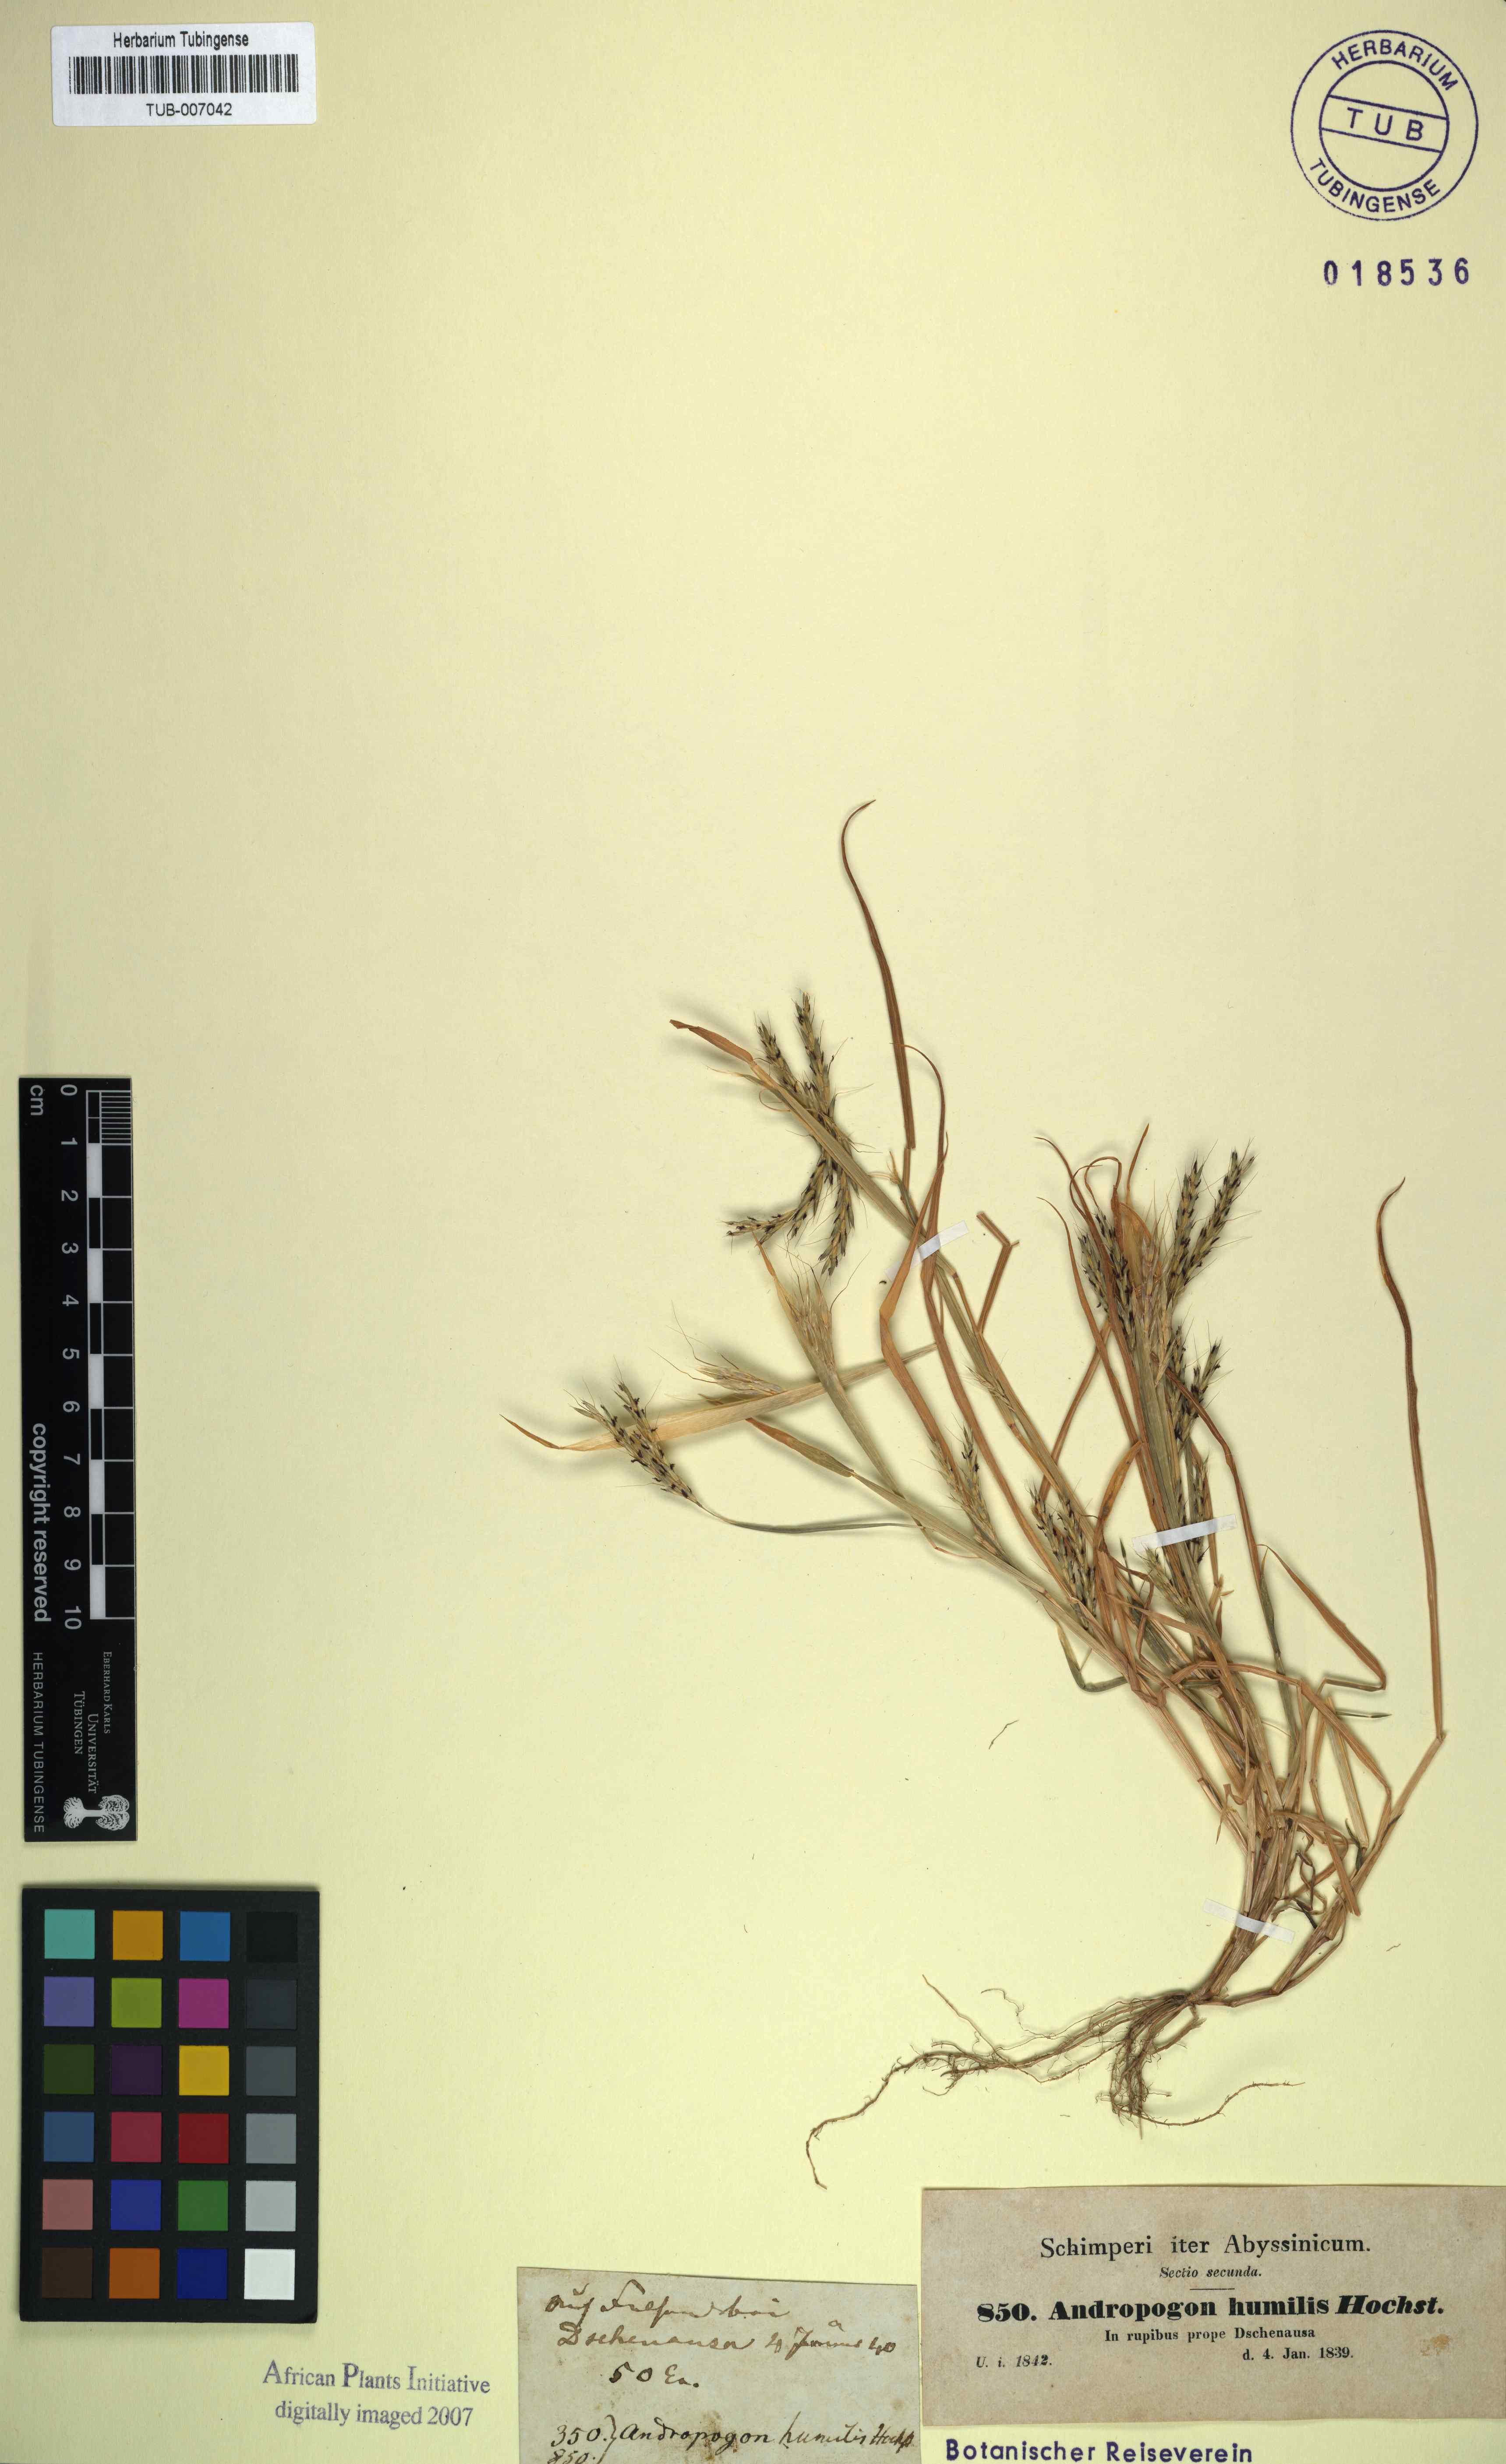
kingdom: Plantae
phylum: Tracheophyta
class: Liliopsida
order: Poales
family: Poaceae
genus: Andropogon
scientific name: Andropogon amethystinus
